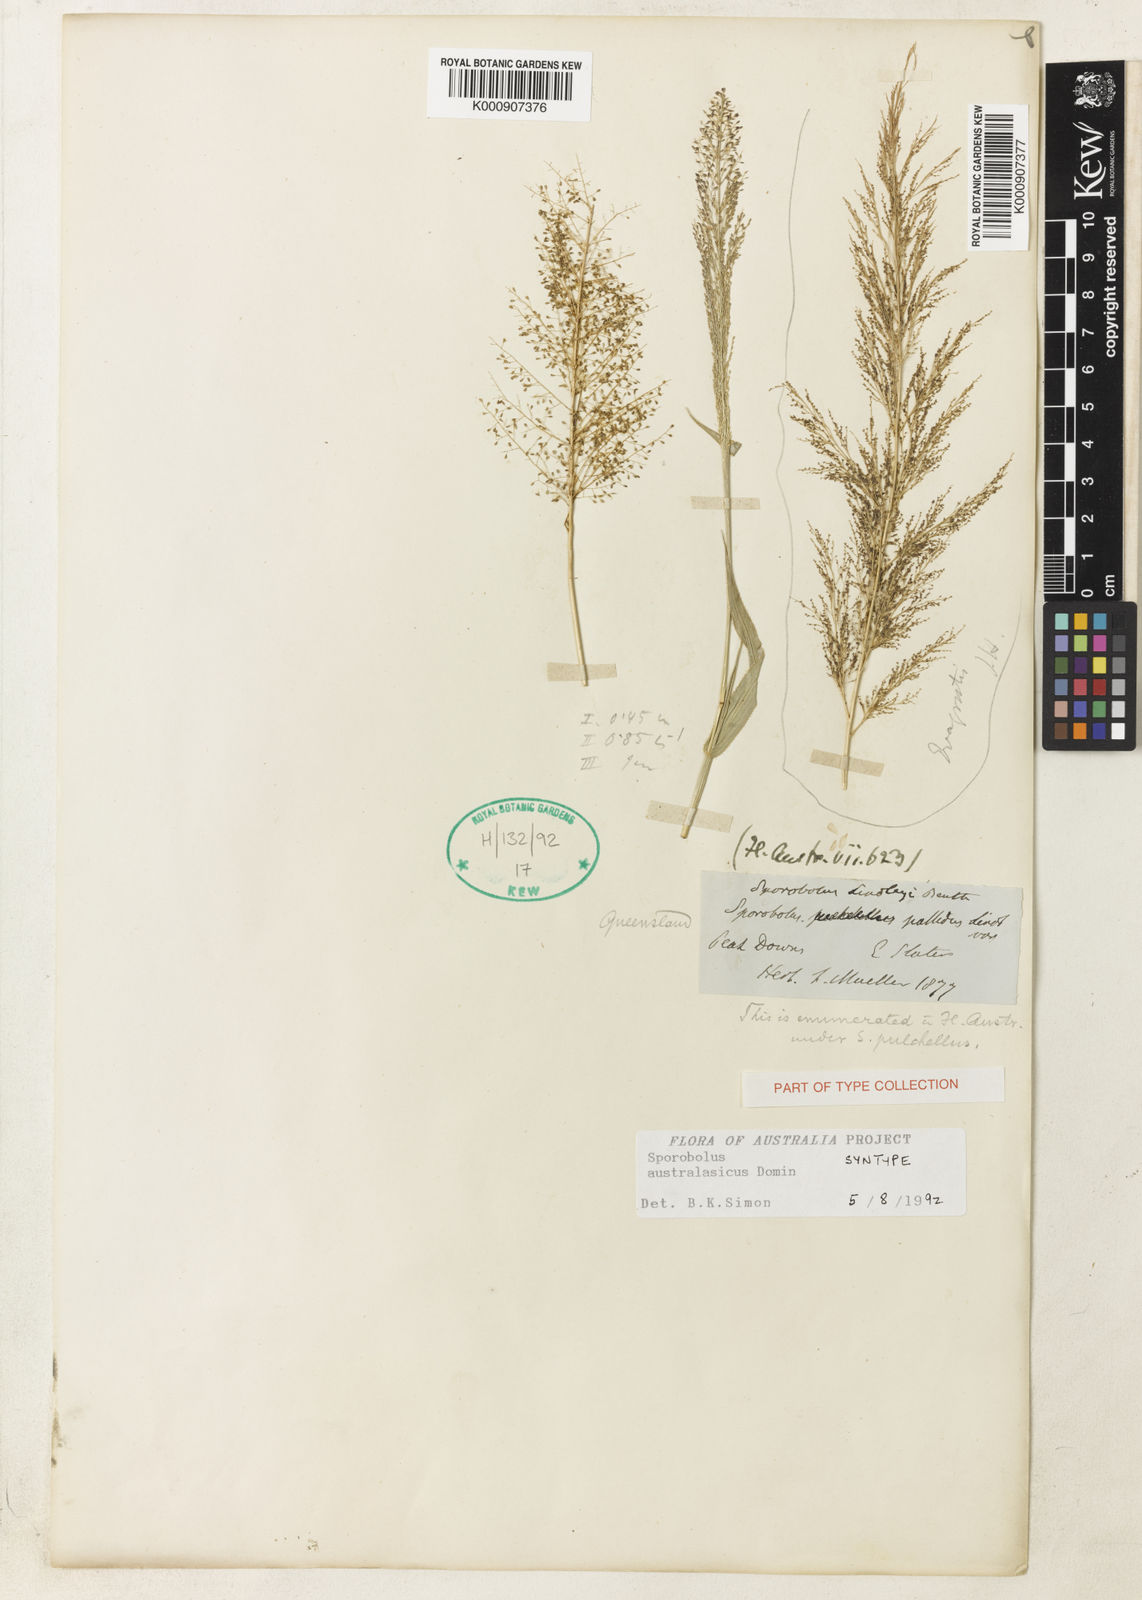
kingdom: Plantae
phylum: Tracheophyta
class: Liliopsida
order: Poales
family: Poaceae
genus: Sporobolus
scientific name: Sporobolus australasicus
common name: Australian dropseed
